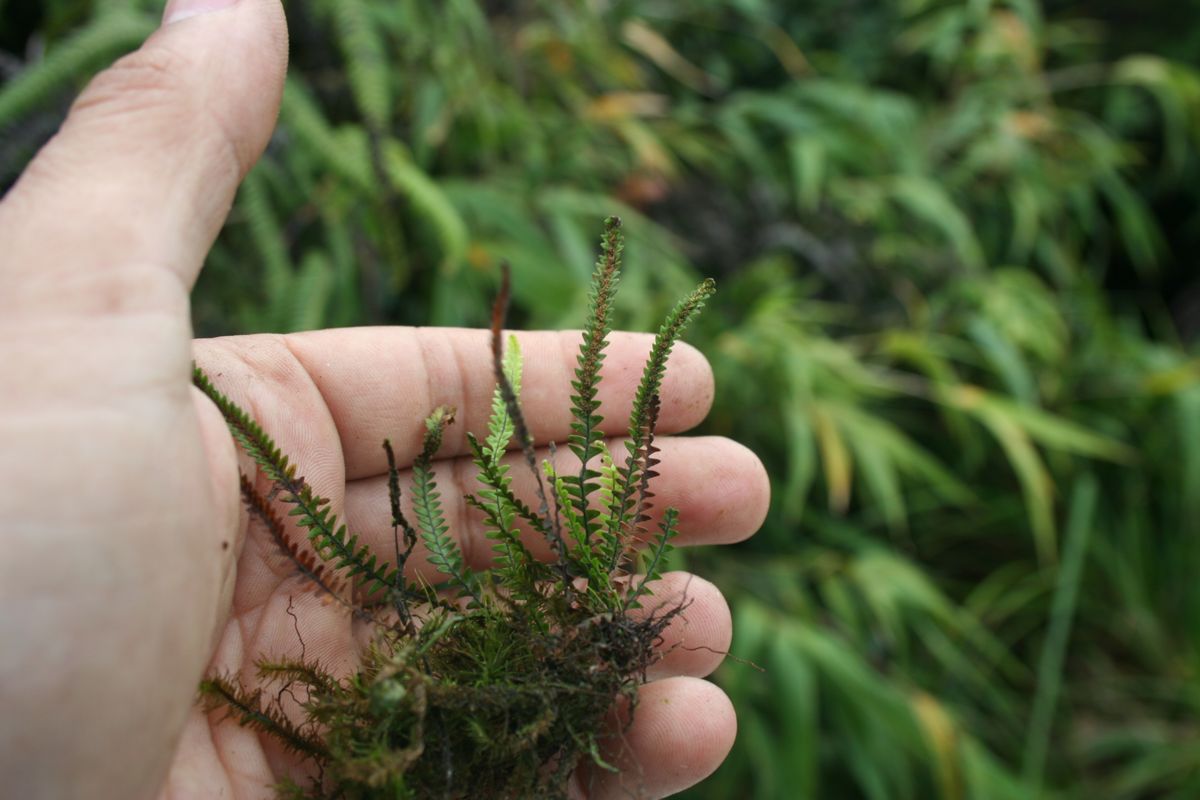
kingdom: Plantae
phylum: Tracheophyta
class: Polypodiopsida
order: Polypodiales
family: Polypodiaceae
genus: Stenogrammitis
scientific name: Stenogrammitis prionodes
